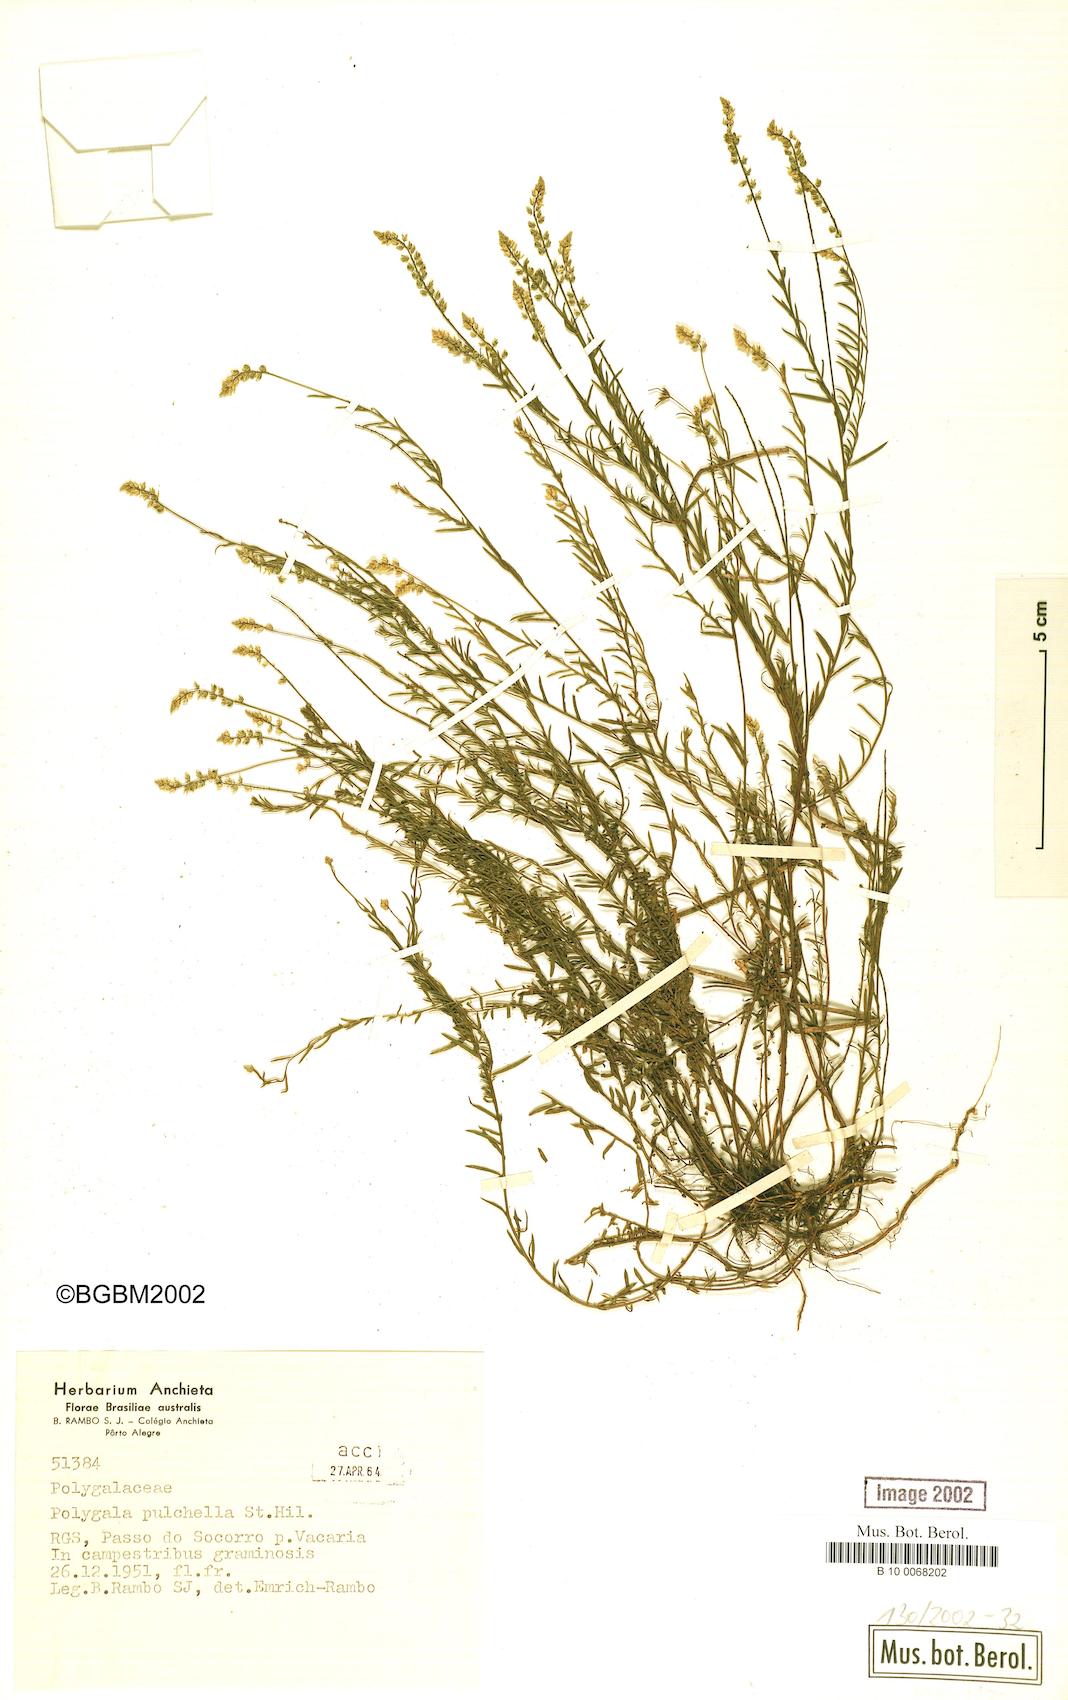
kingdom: Plantae
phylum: Tracheophyta
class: Magnoliopsida
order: Fabales
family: Polygalaceae
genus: Polygala
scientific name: Polygala pulchella
